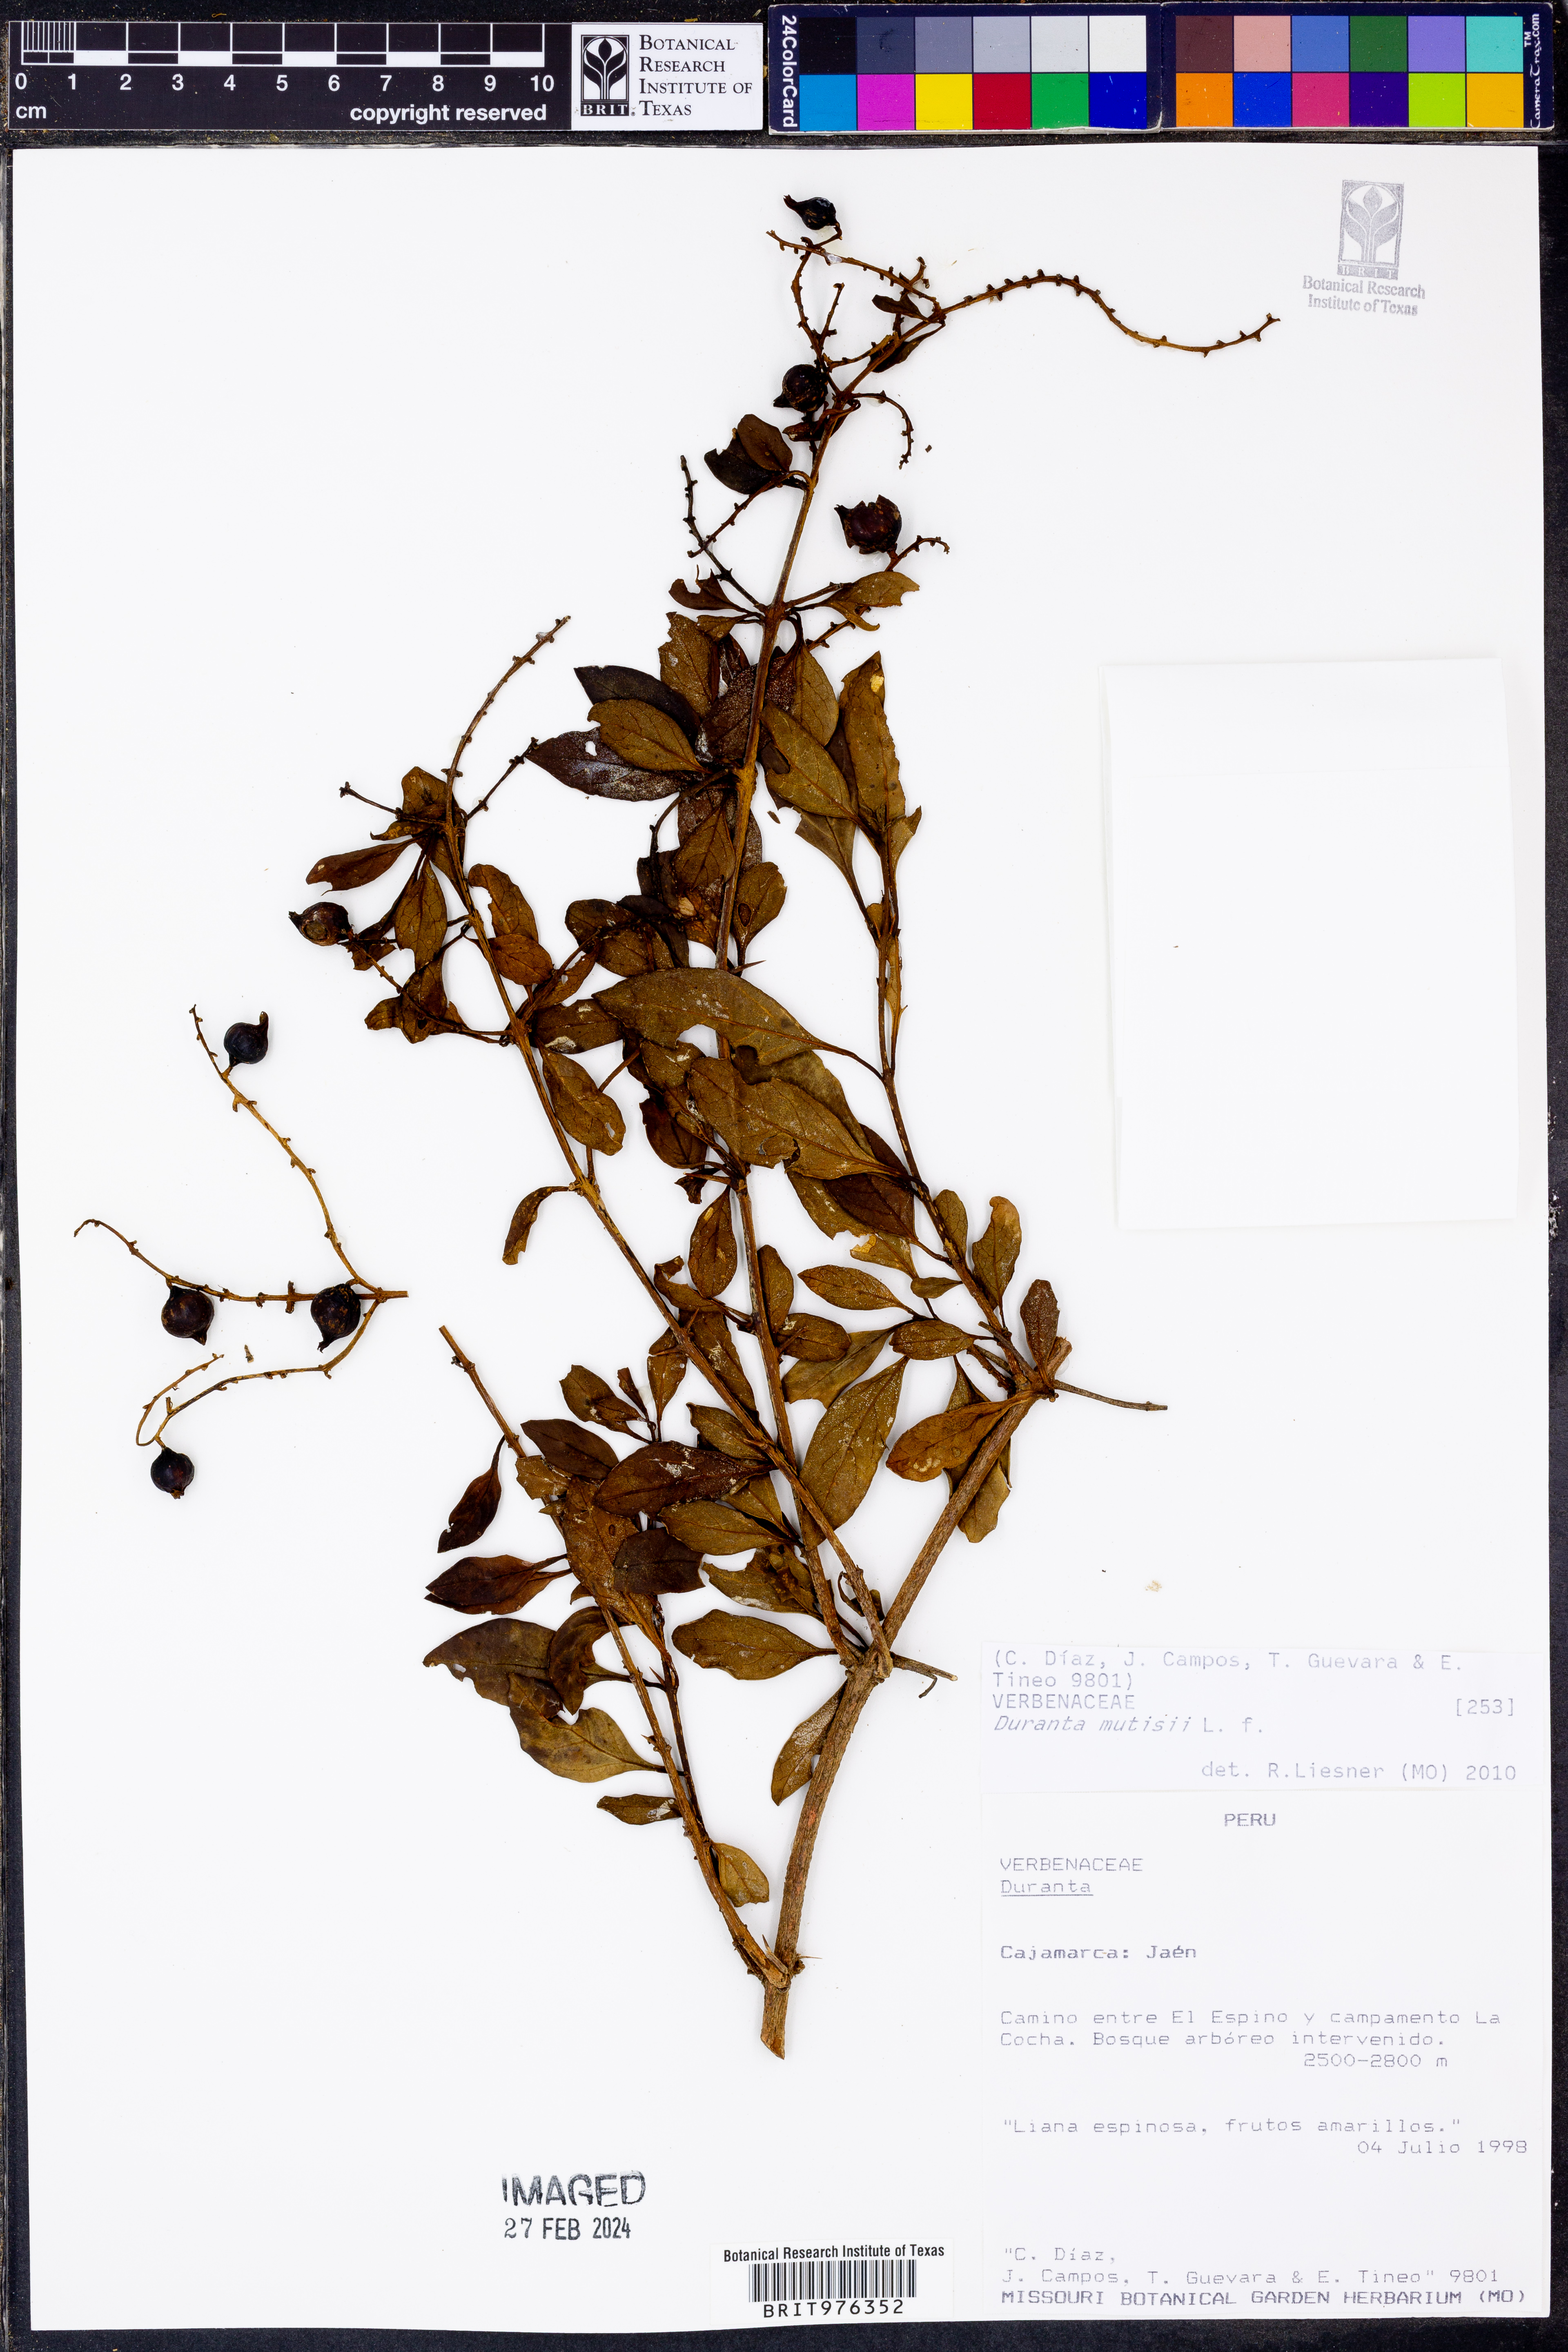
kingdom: Plantae
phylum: Tracheophyta
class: Magnoliopsida
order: Lamiales
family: Verbenaceae
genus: Duranta
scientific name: Duranta
